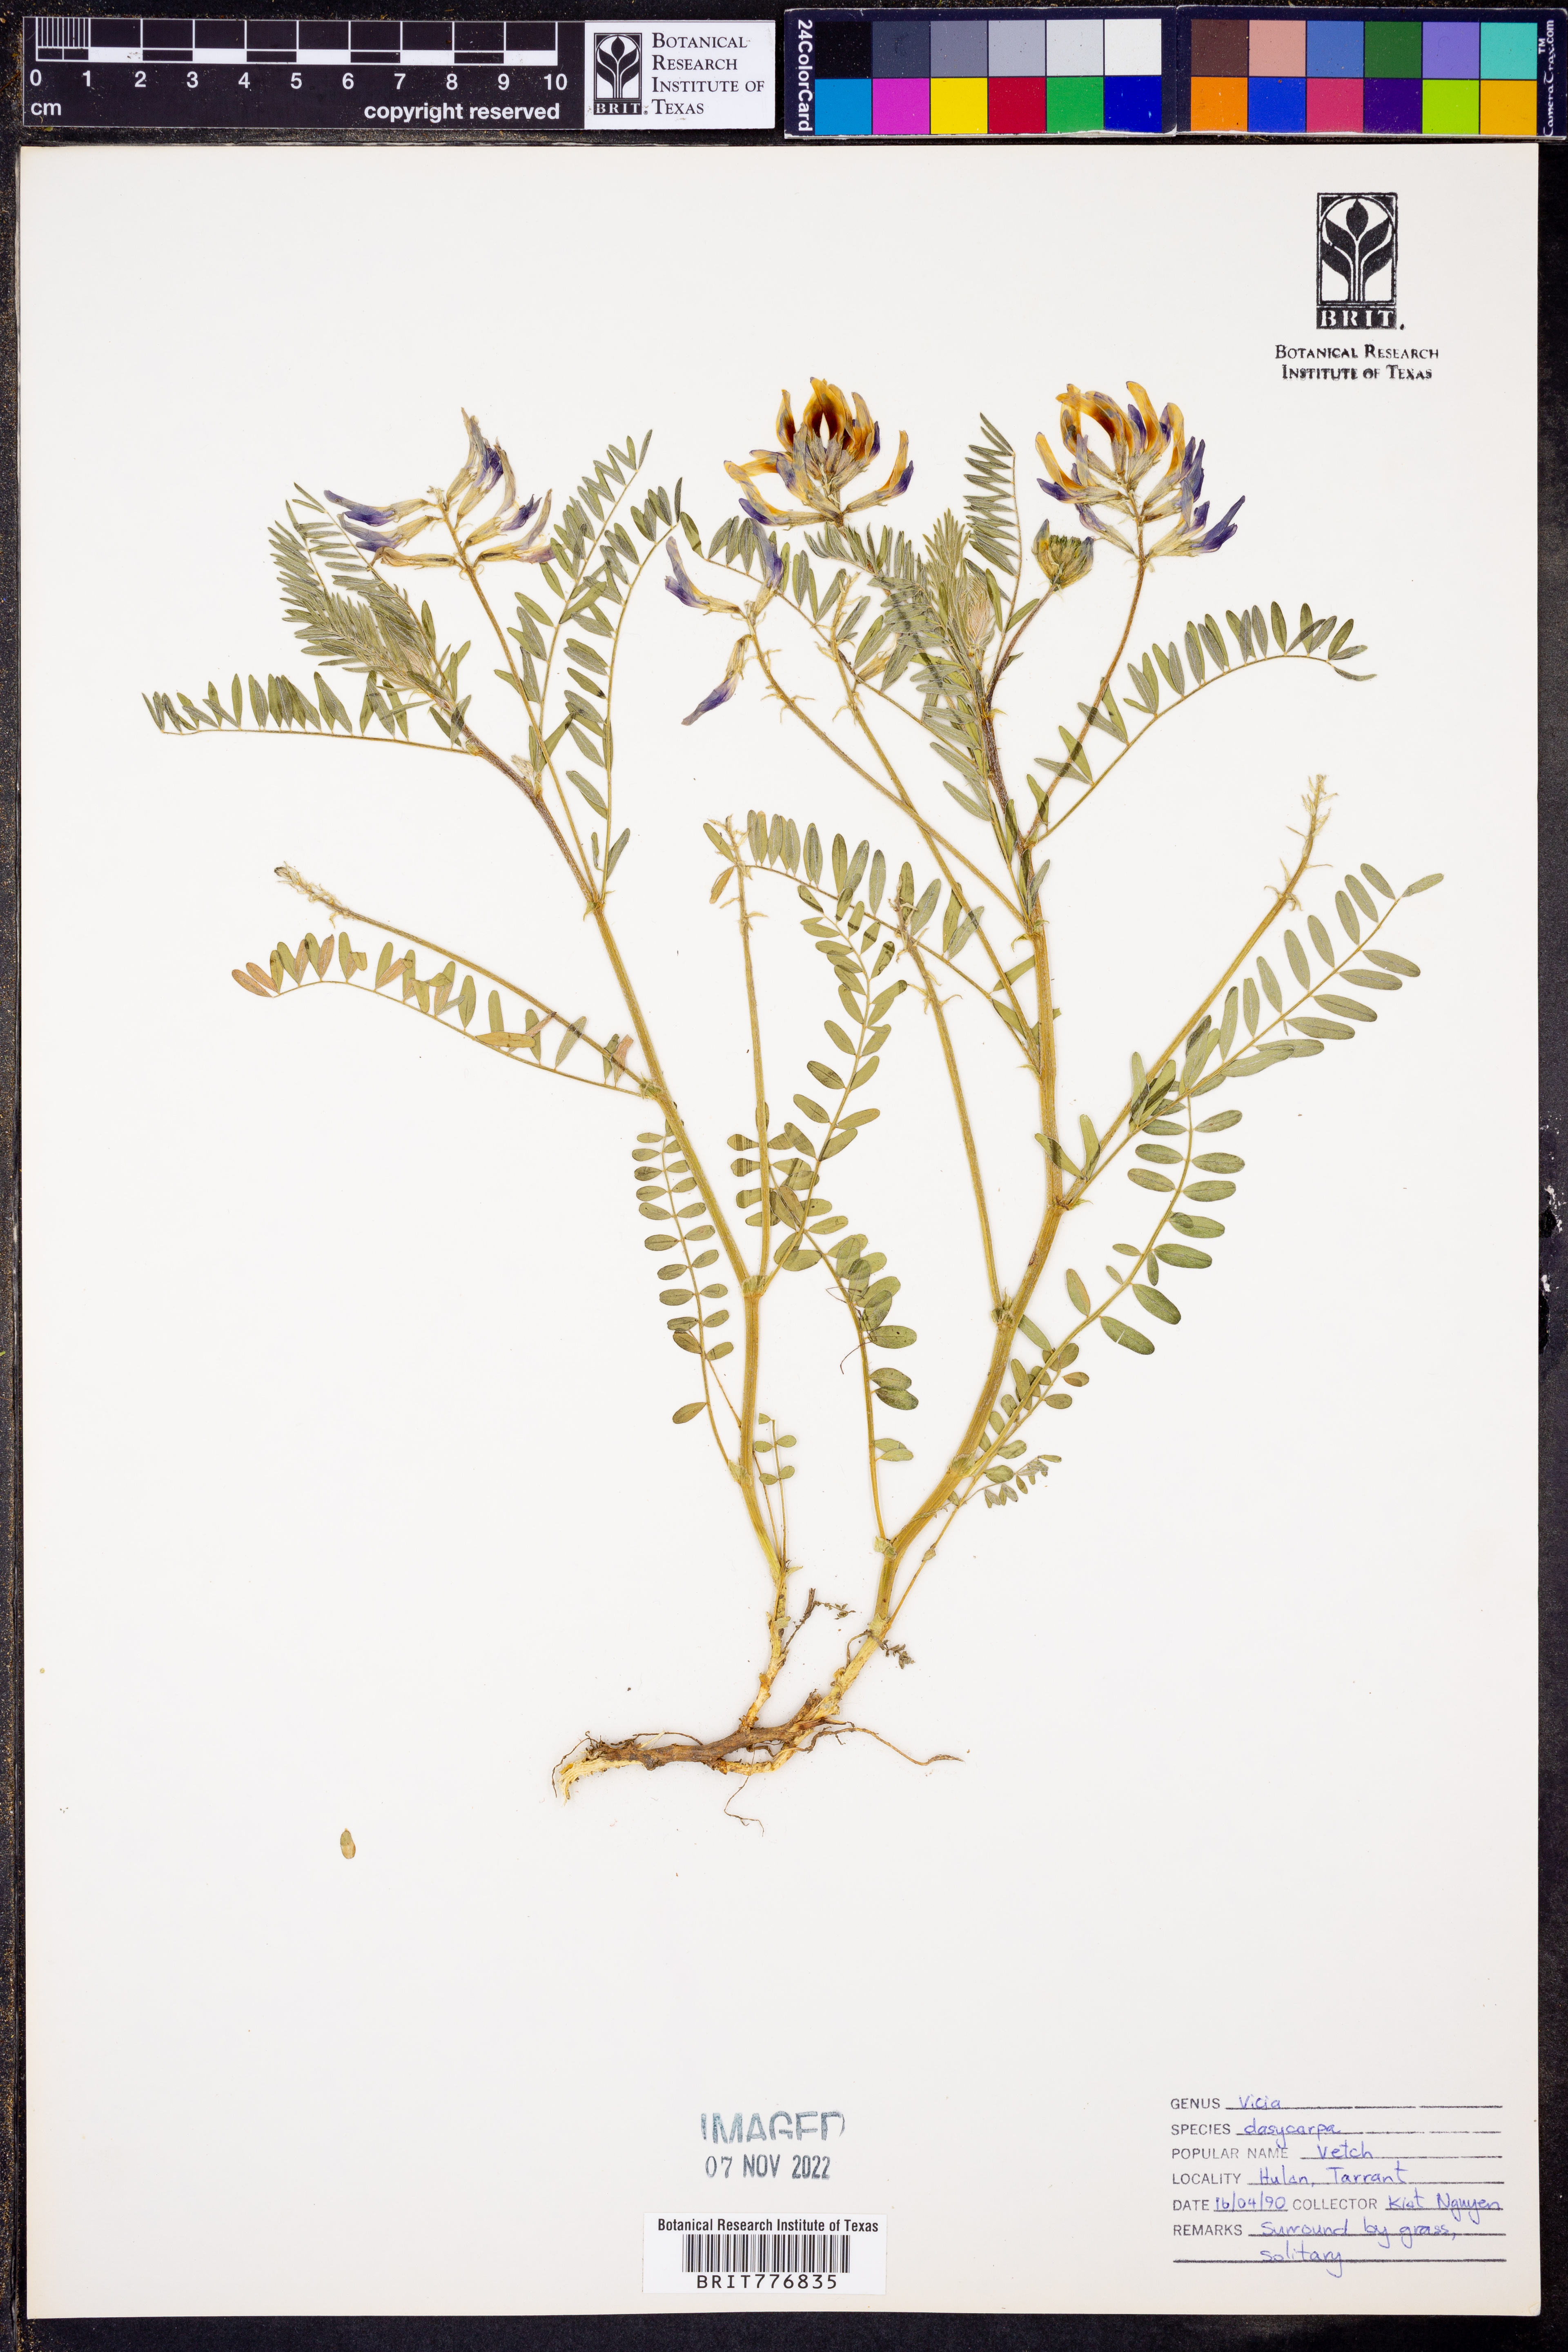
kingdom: Plantae
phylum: Tracheophyta
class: Magnoliopsida
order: Fabales
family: Fabaceae
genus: Vicia
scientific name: Vicia villosa
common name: Fodder vetch
